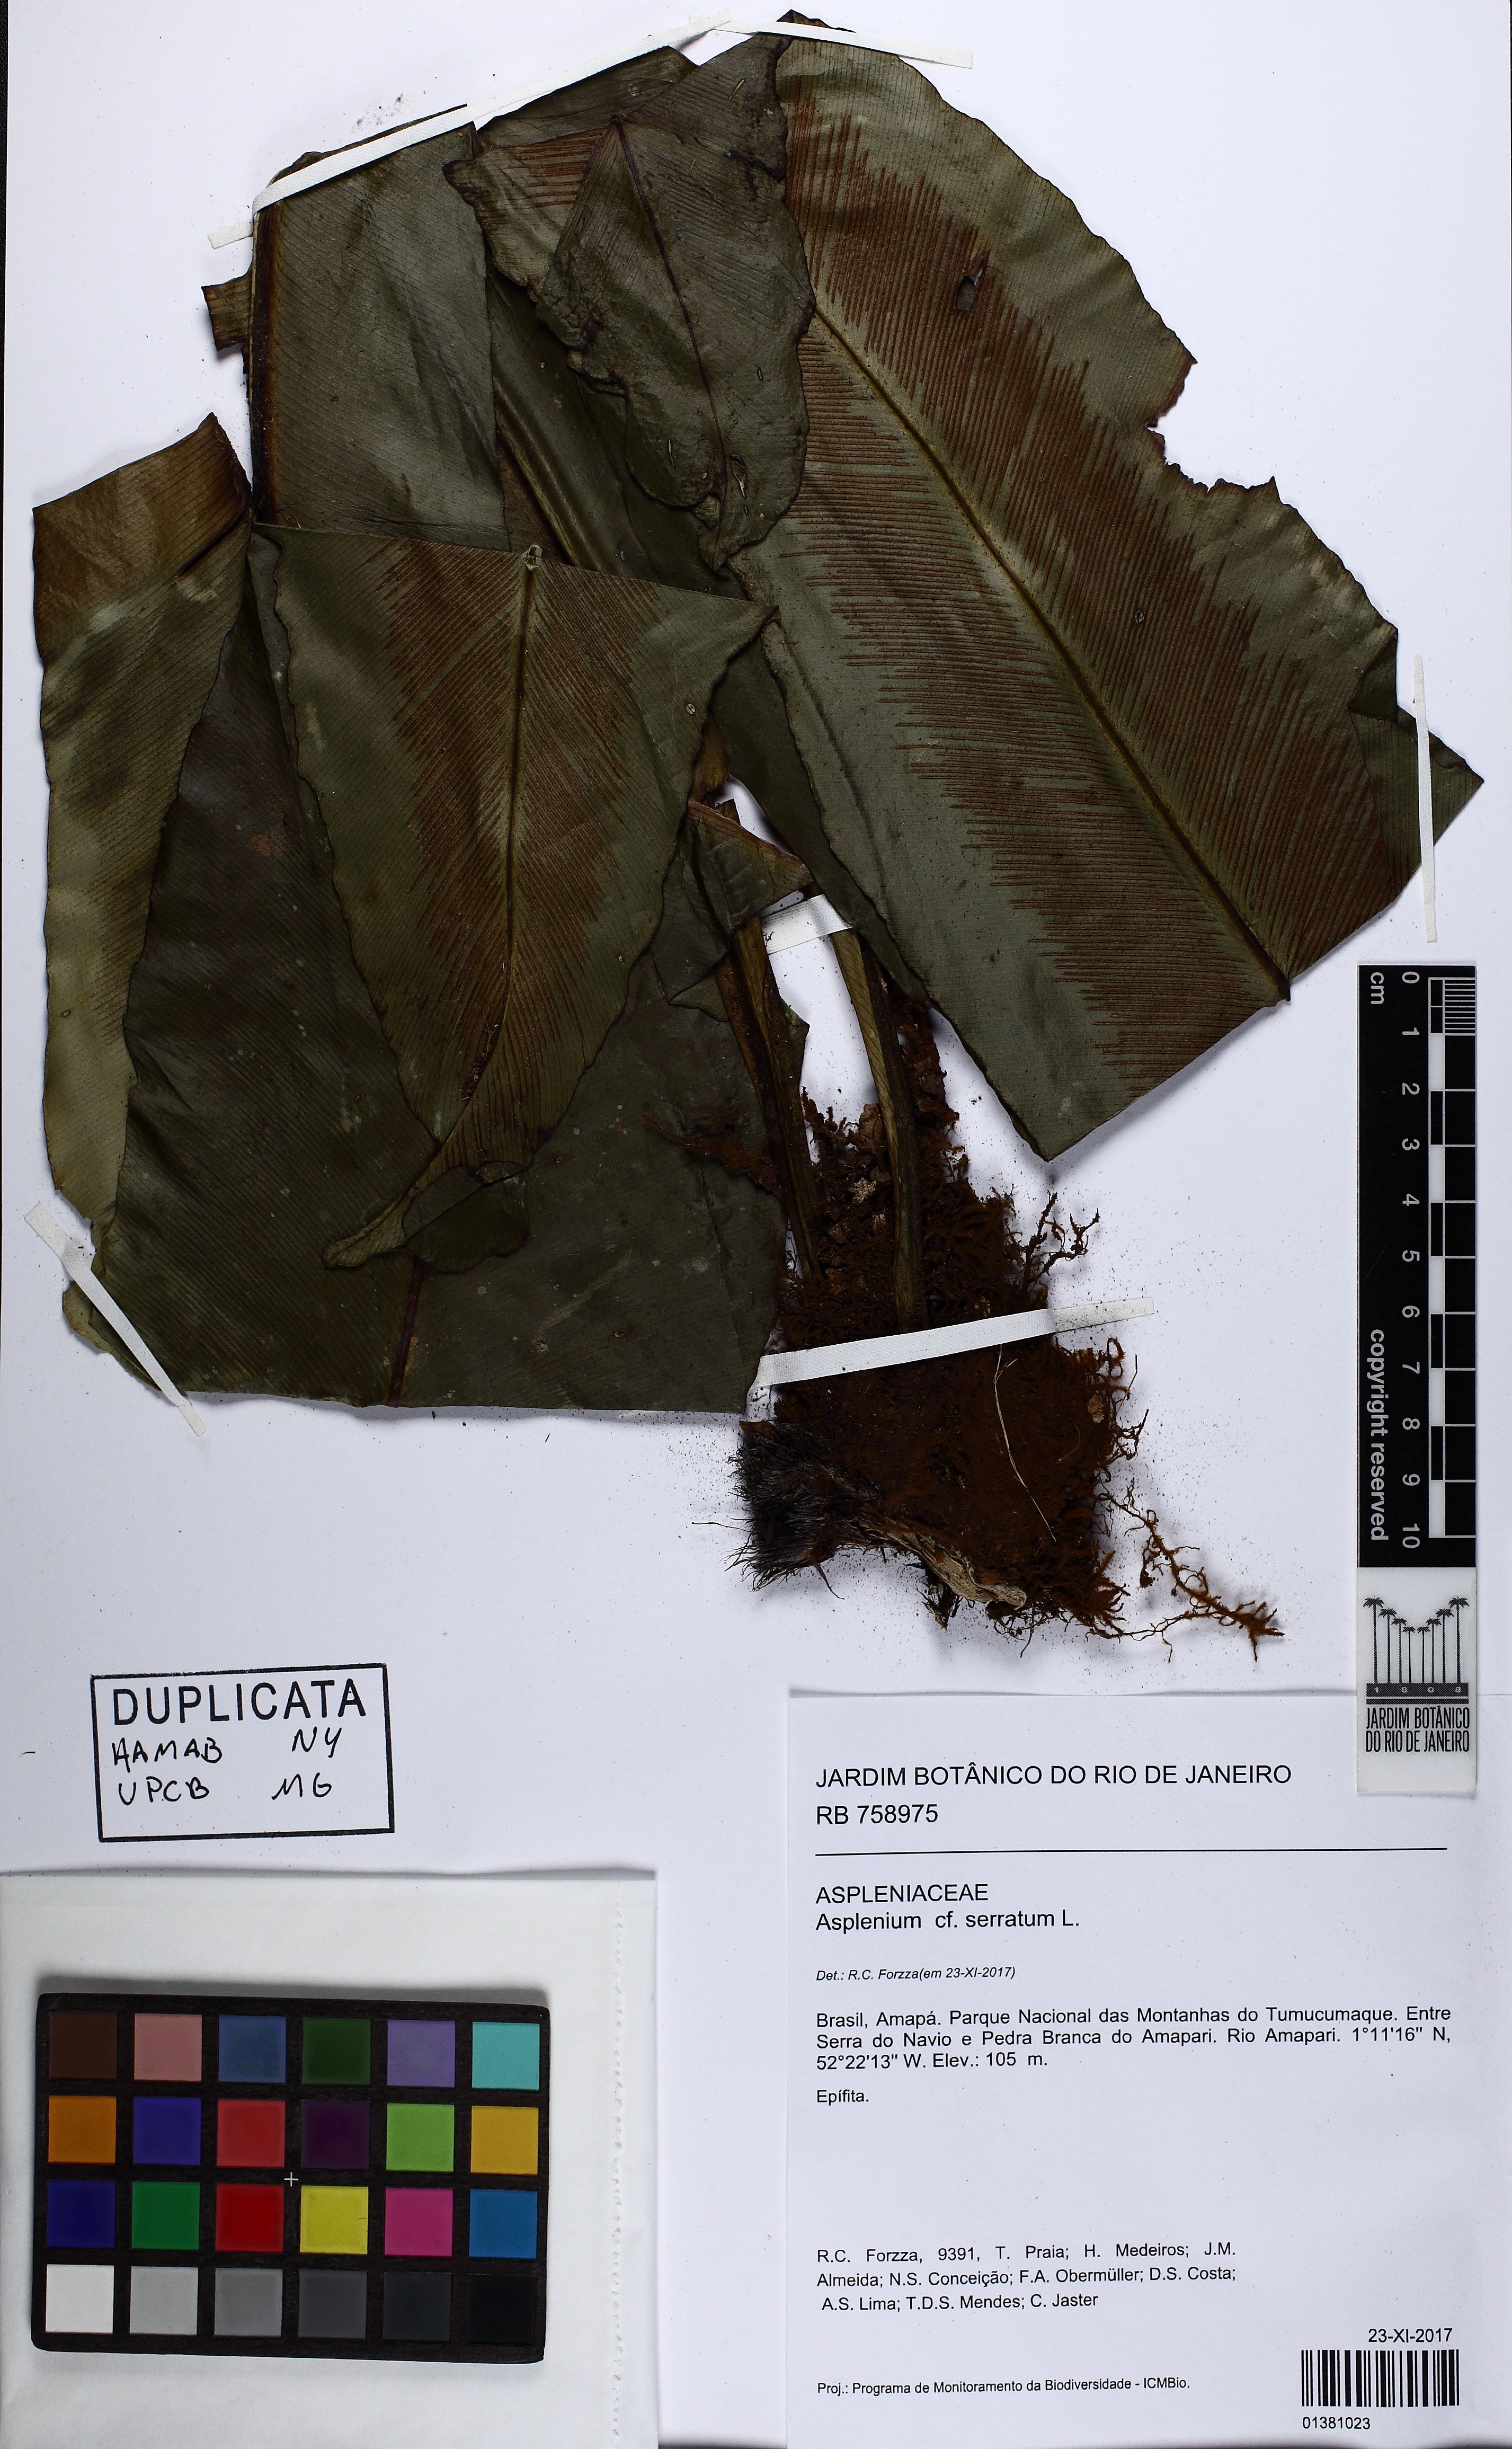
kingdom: Plantae
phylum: Tracheophyta
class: Polypodiopsida
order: Polypodiales
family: Aspleniaceae
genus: Asplenium
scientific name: Asplenium serratum
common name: Wild birdnest fern
